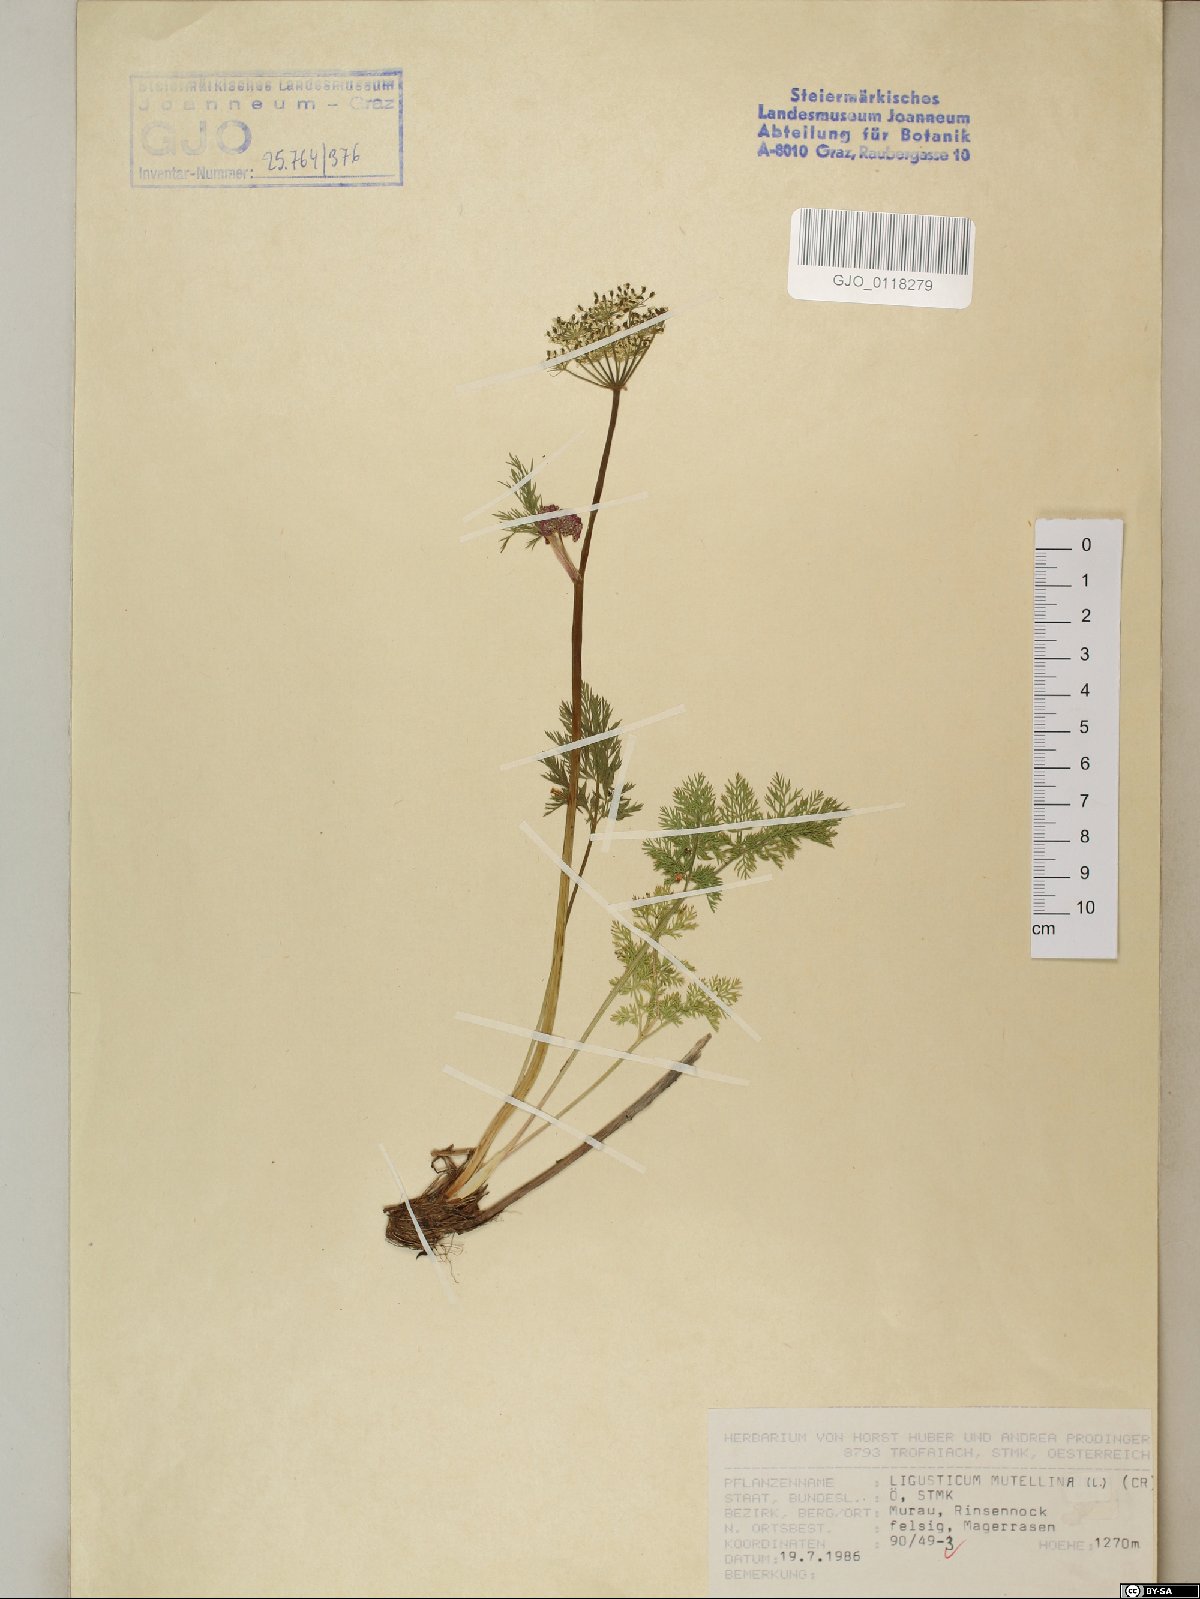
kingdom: Plantae
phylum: Tracheophyta
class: Magnoliopsida
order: Apiales
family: Apiaceae
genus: Mutellina
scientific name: Mutellina adonidifolia
